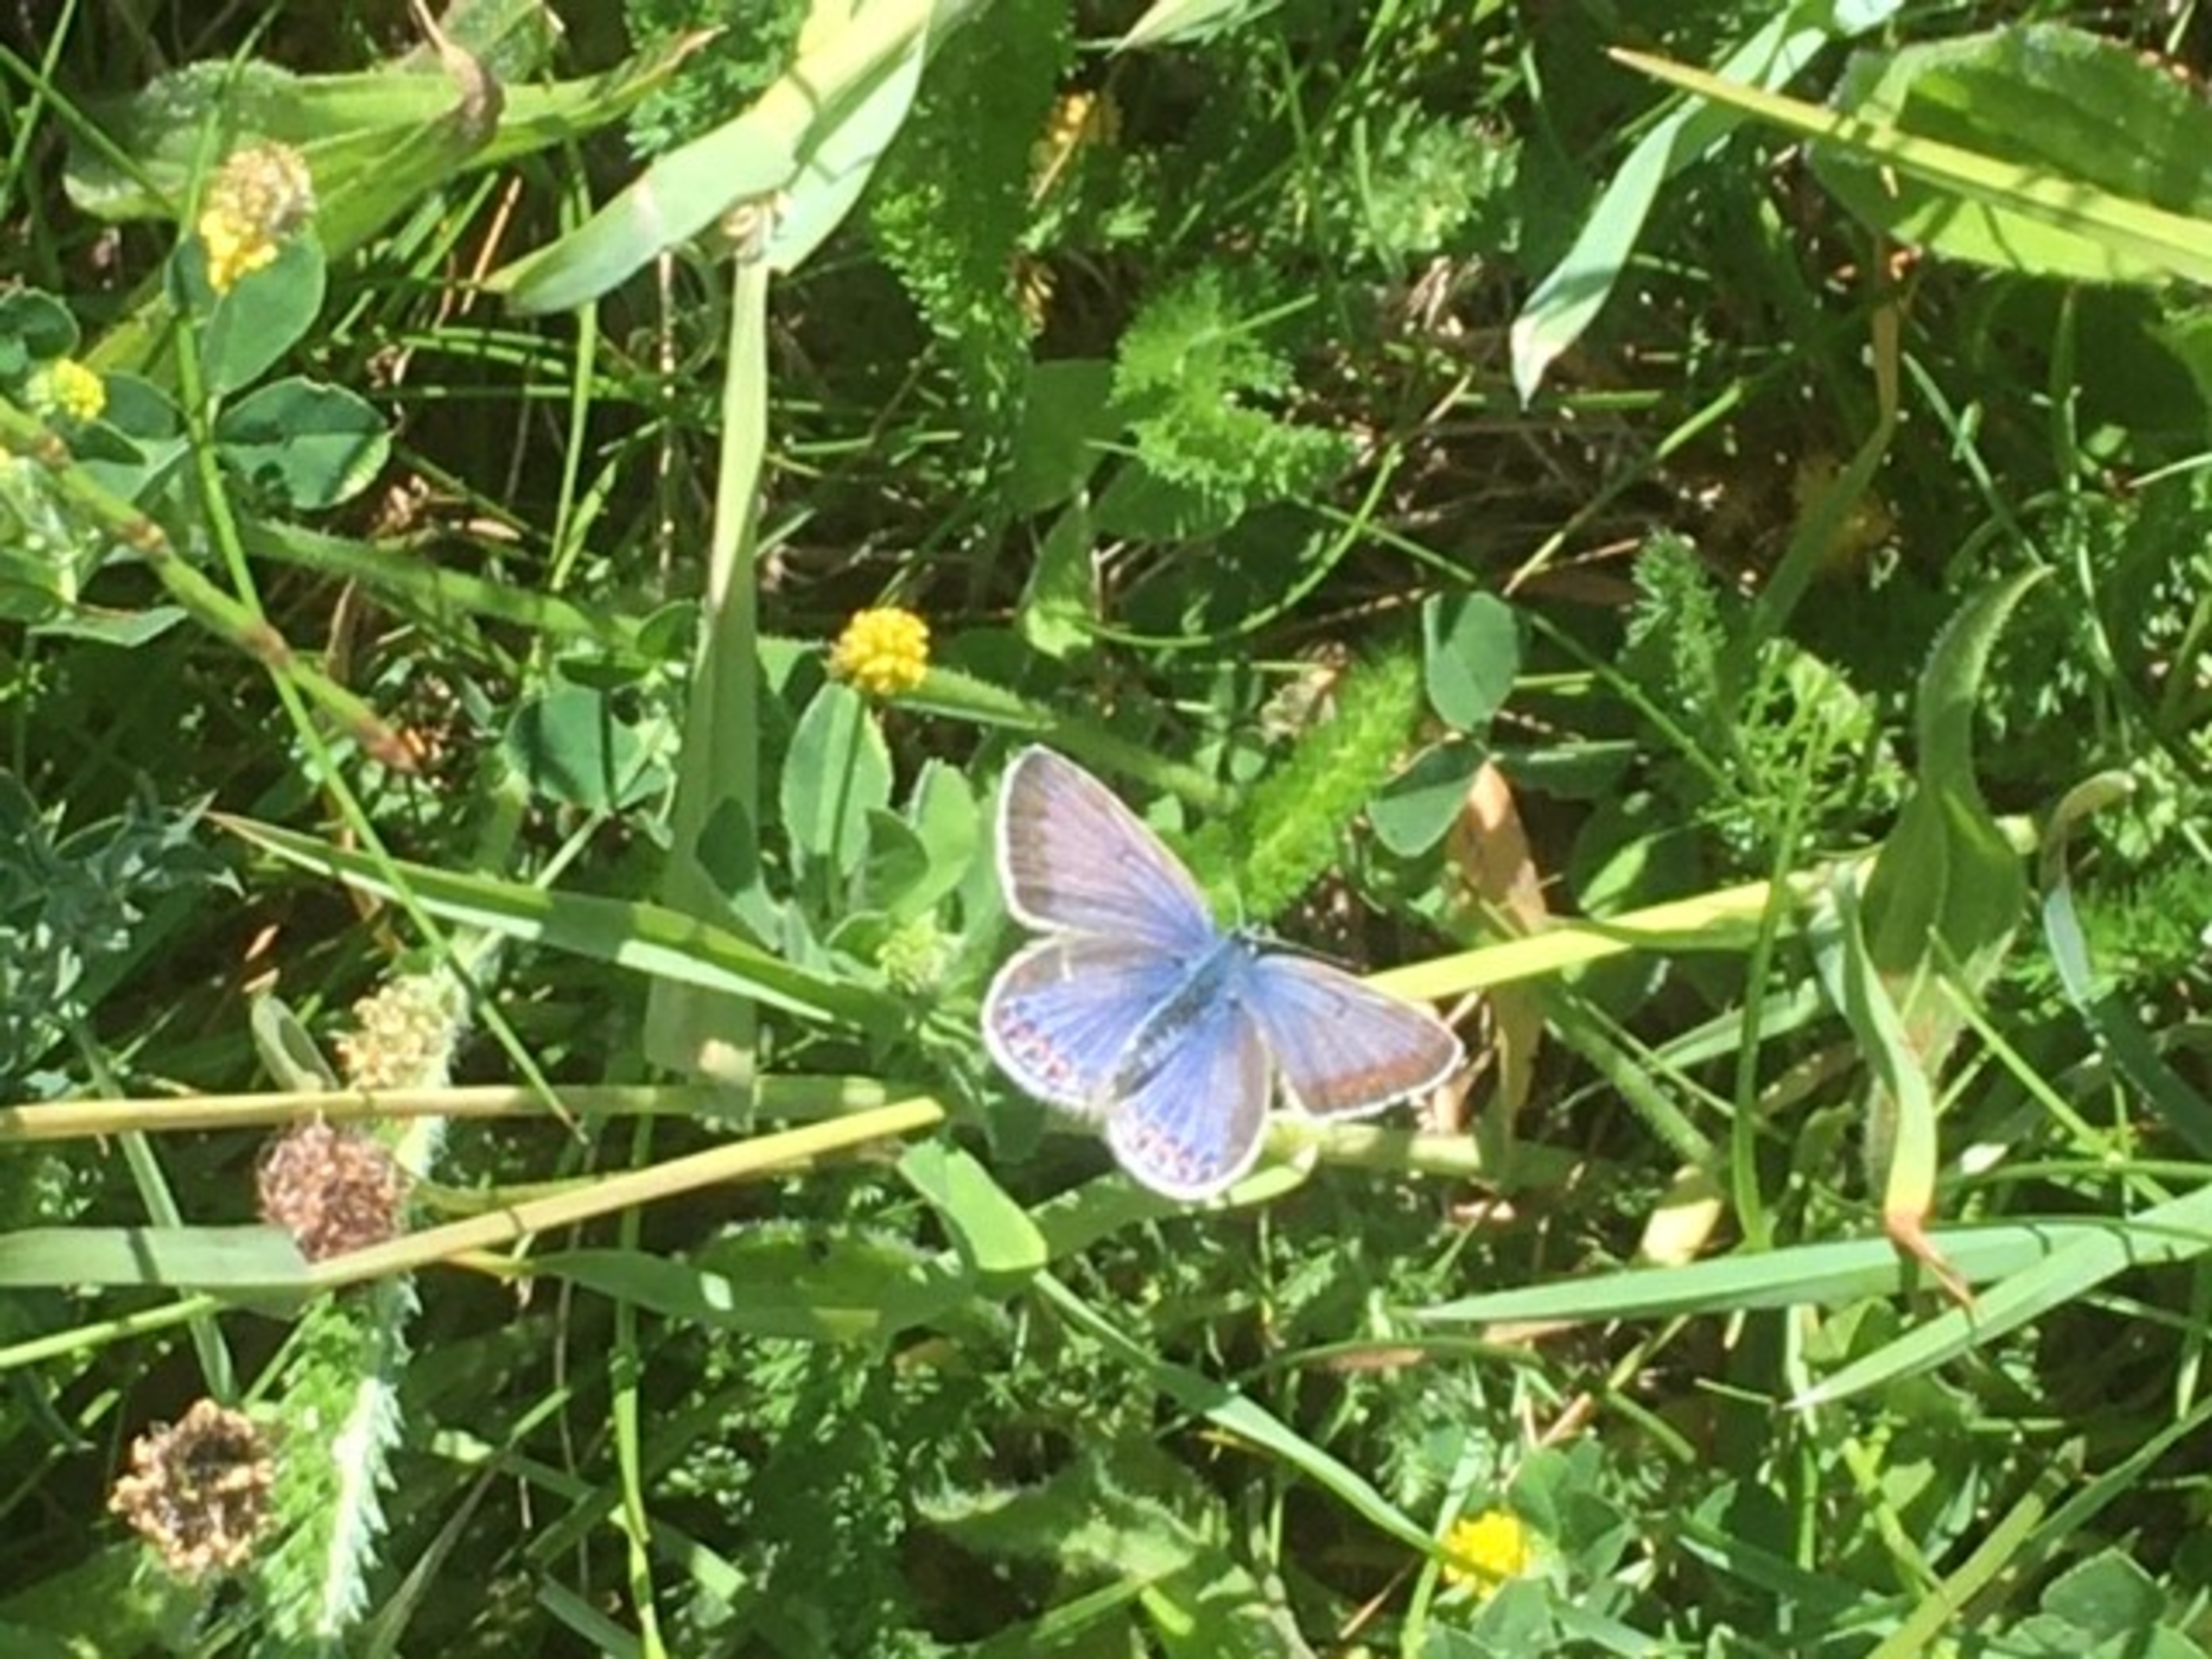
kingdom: Animalia
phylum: Arthropoda
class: Insecta
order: Lepidoptera
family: Lycaenidae
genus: Polyommatus
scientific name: Polyommatus icarus
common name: Almindelig blåfugl
